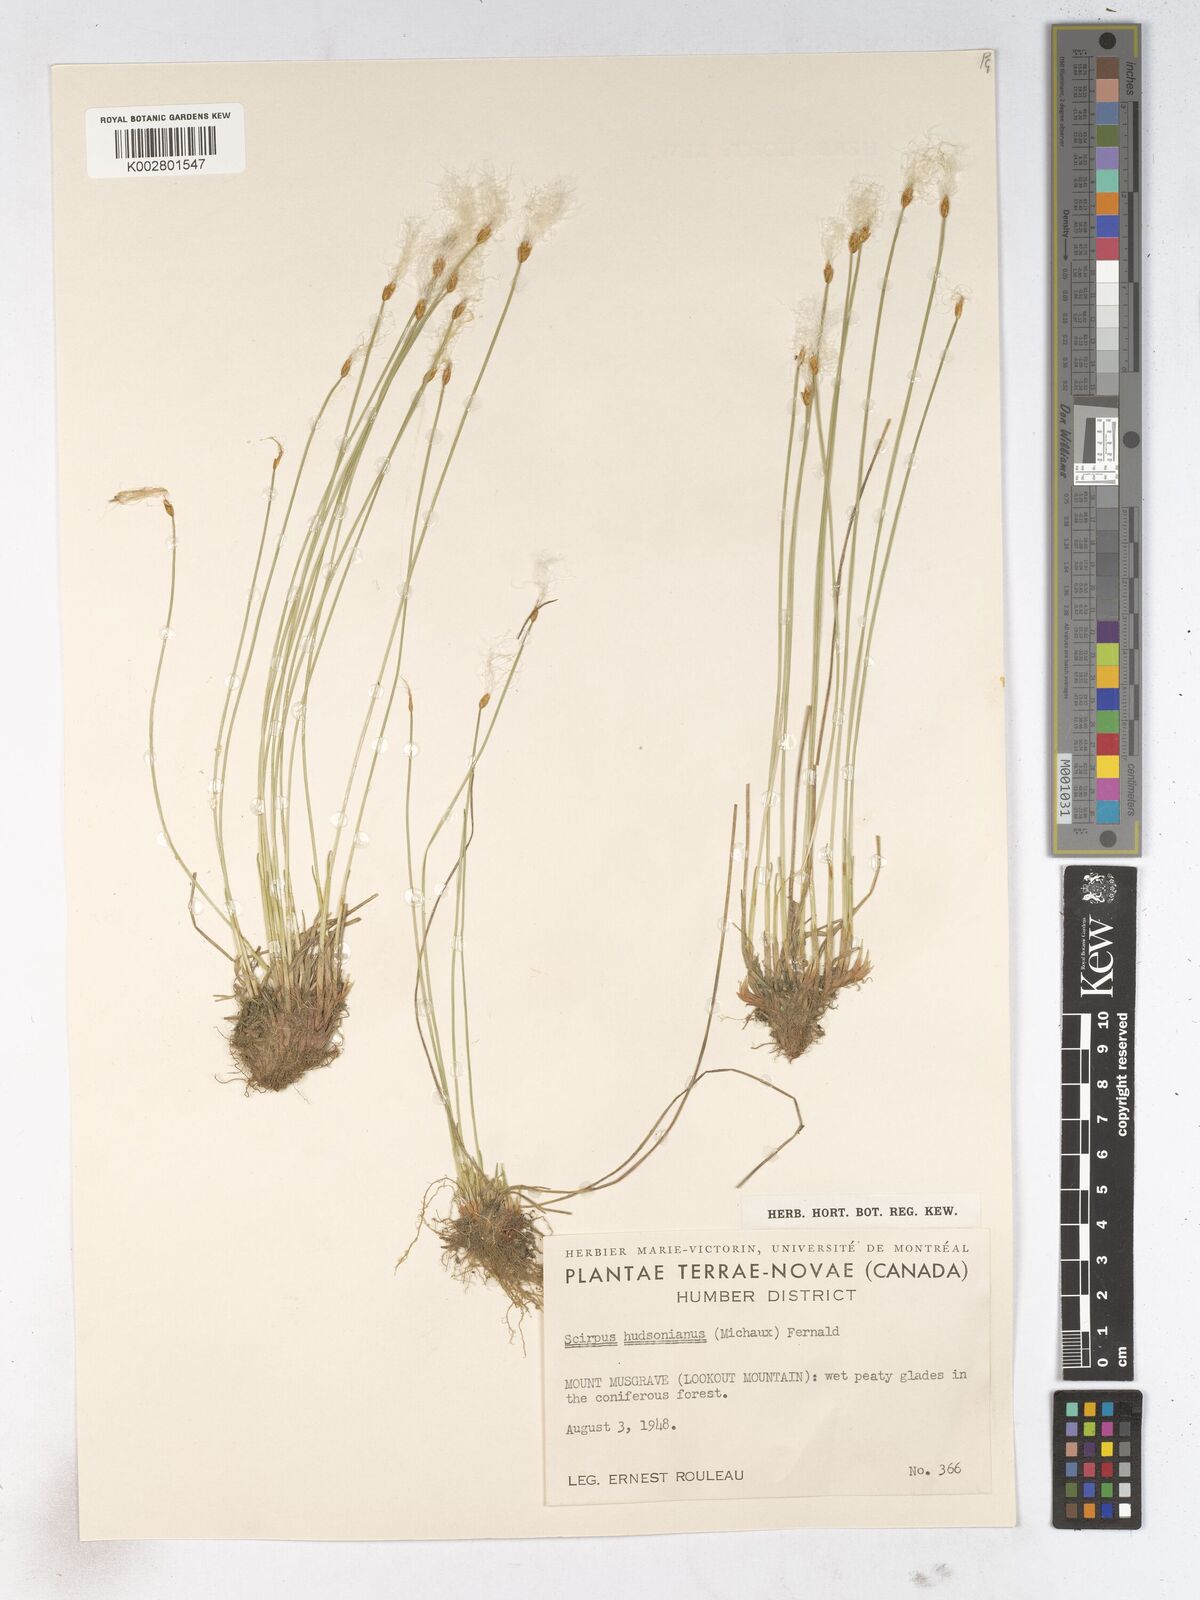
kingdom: Plantae
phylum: Tracheophyta
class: Liliopsida
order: Poales
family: Cyperaceae
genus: Trichophorum
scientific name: Trichophorum alpinum
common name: Alpine bulrush
